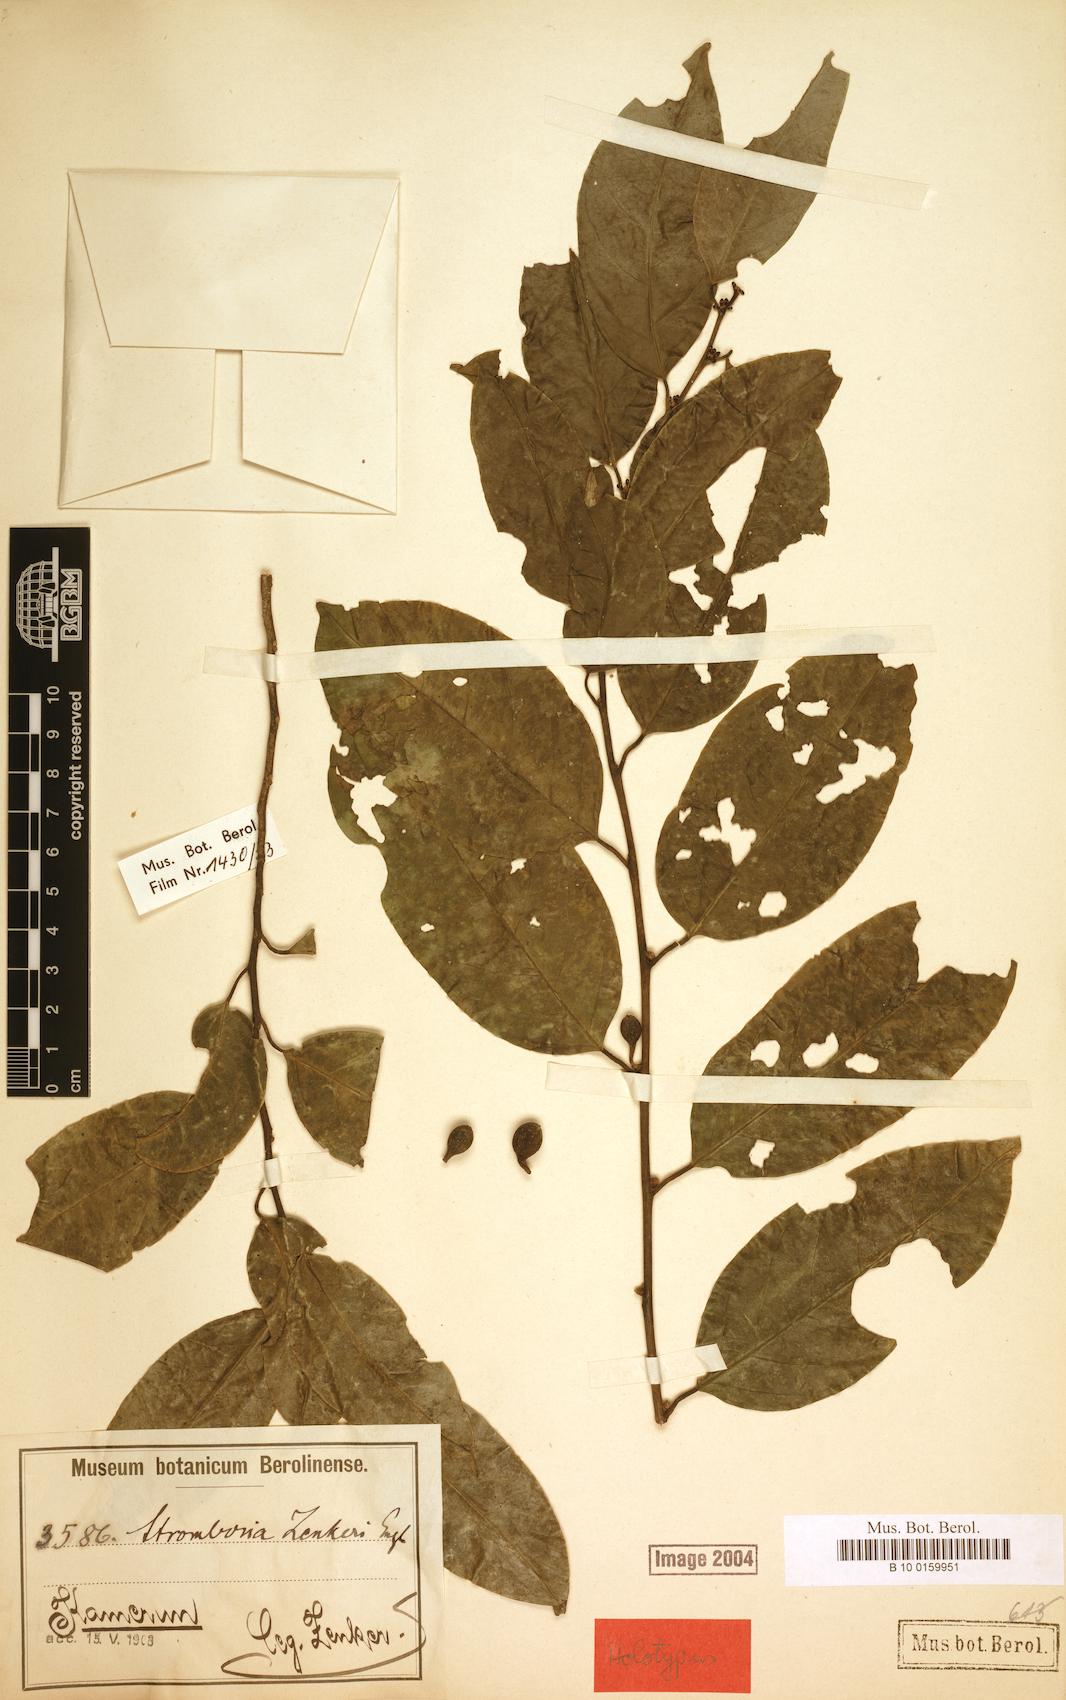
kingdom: Plantae
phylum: Tracheophyta
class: Magnoliopsida
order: Santalales
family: Strombosiaceae
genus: Strombosia
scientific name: Strombosia zenkeri
